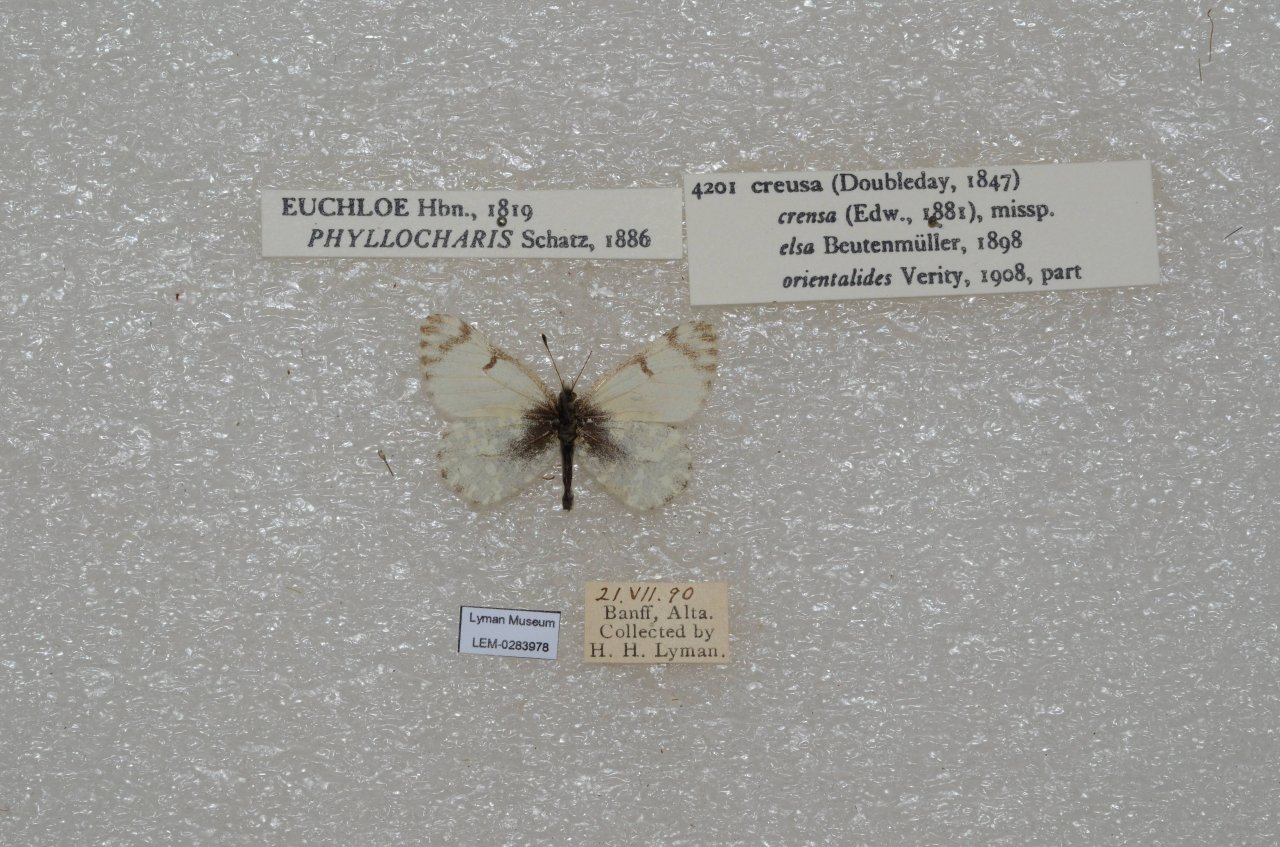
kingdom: Animalia
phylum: Arthropoda
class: Insecta
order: Lepidoptera
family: Pieridae
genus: Euchloe
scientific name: Euchloe creusa
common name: Northern Marble
